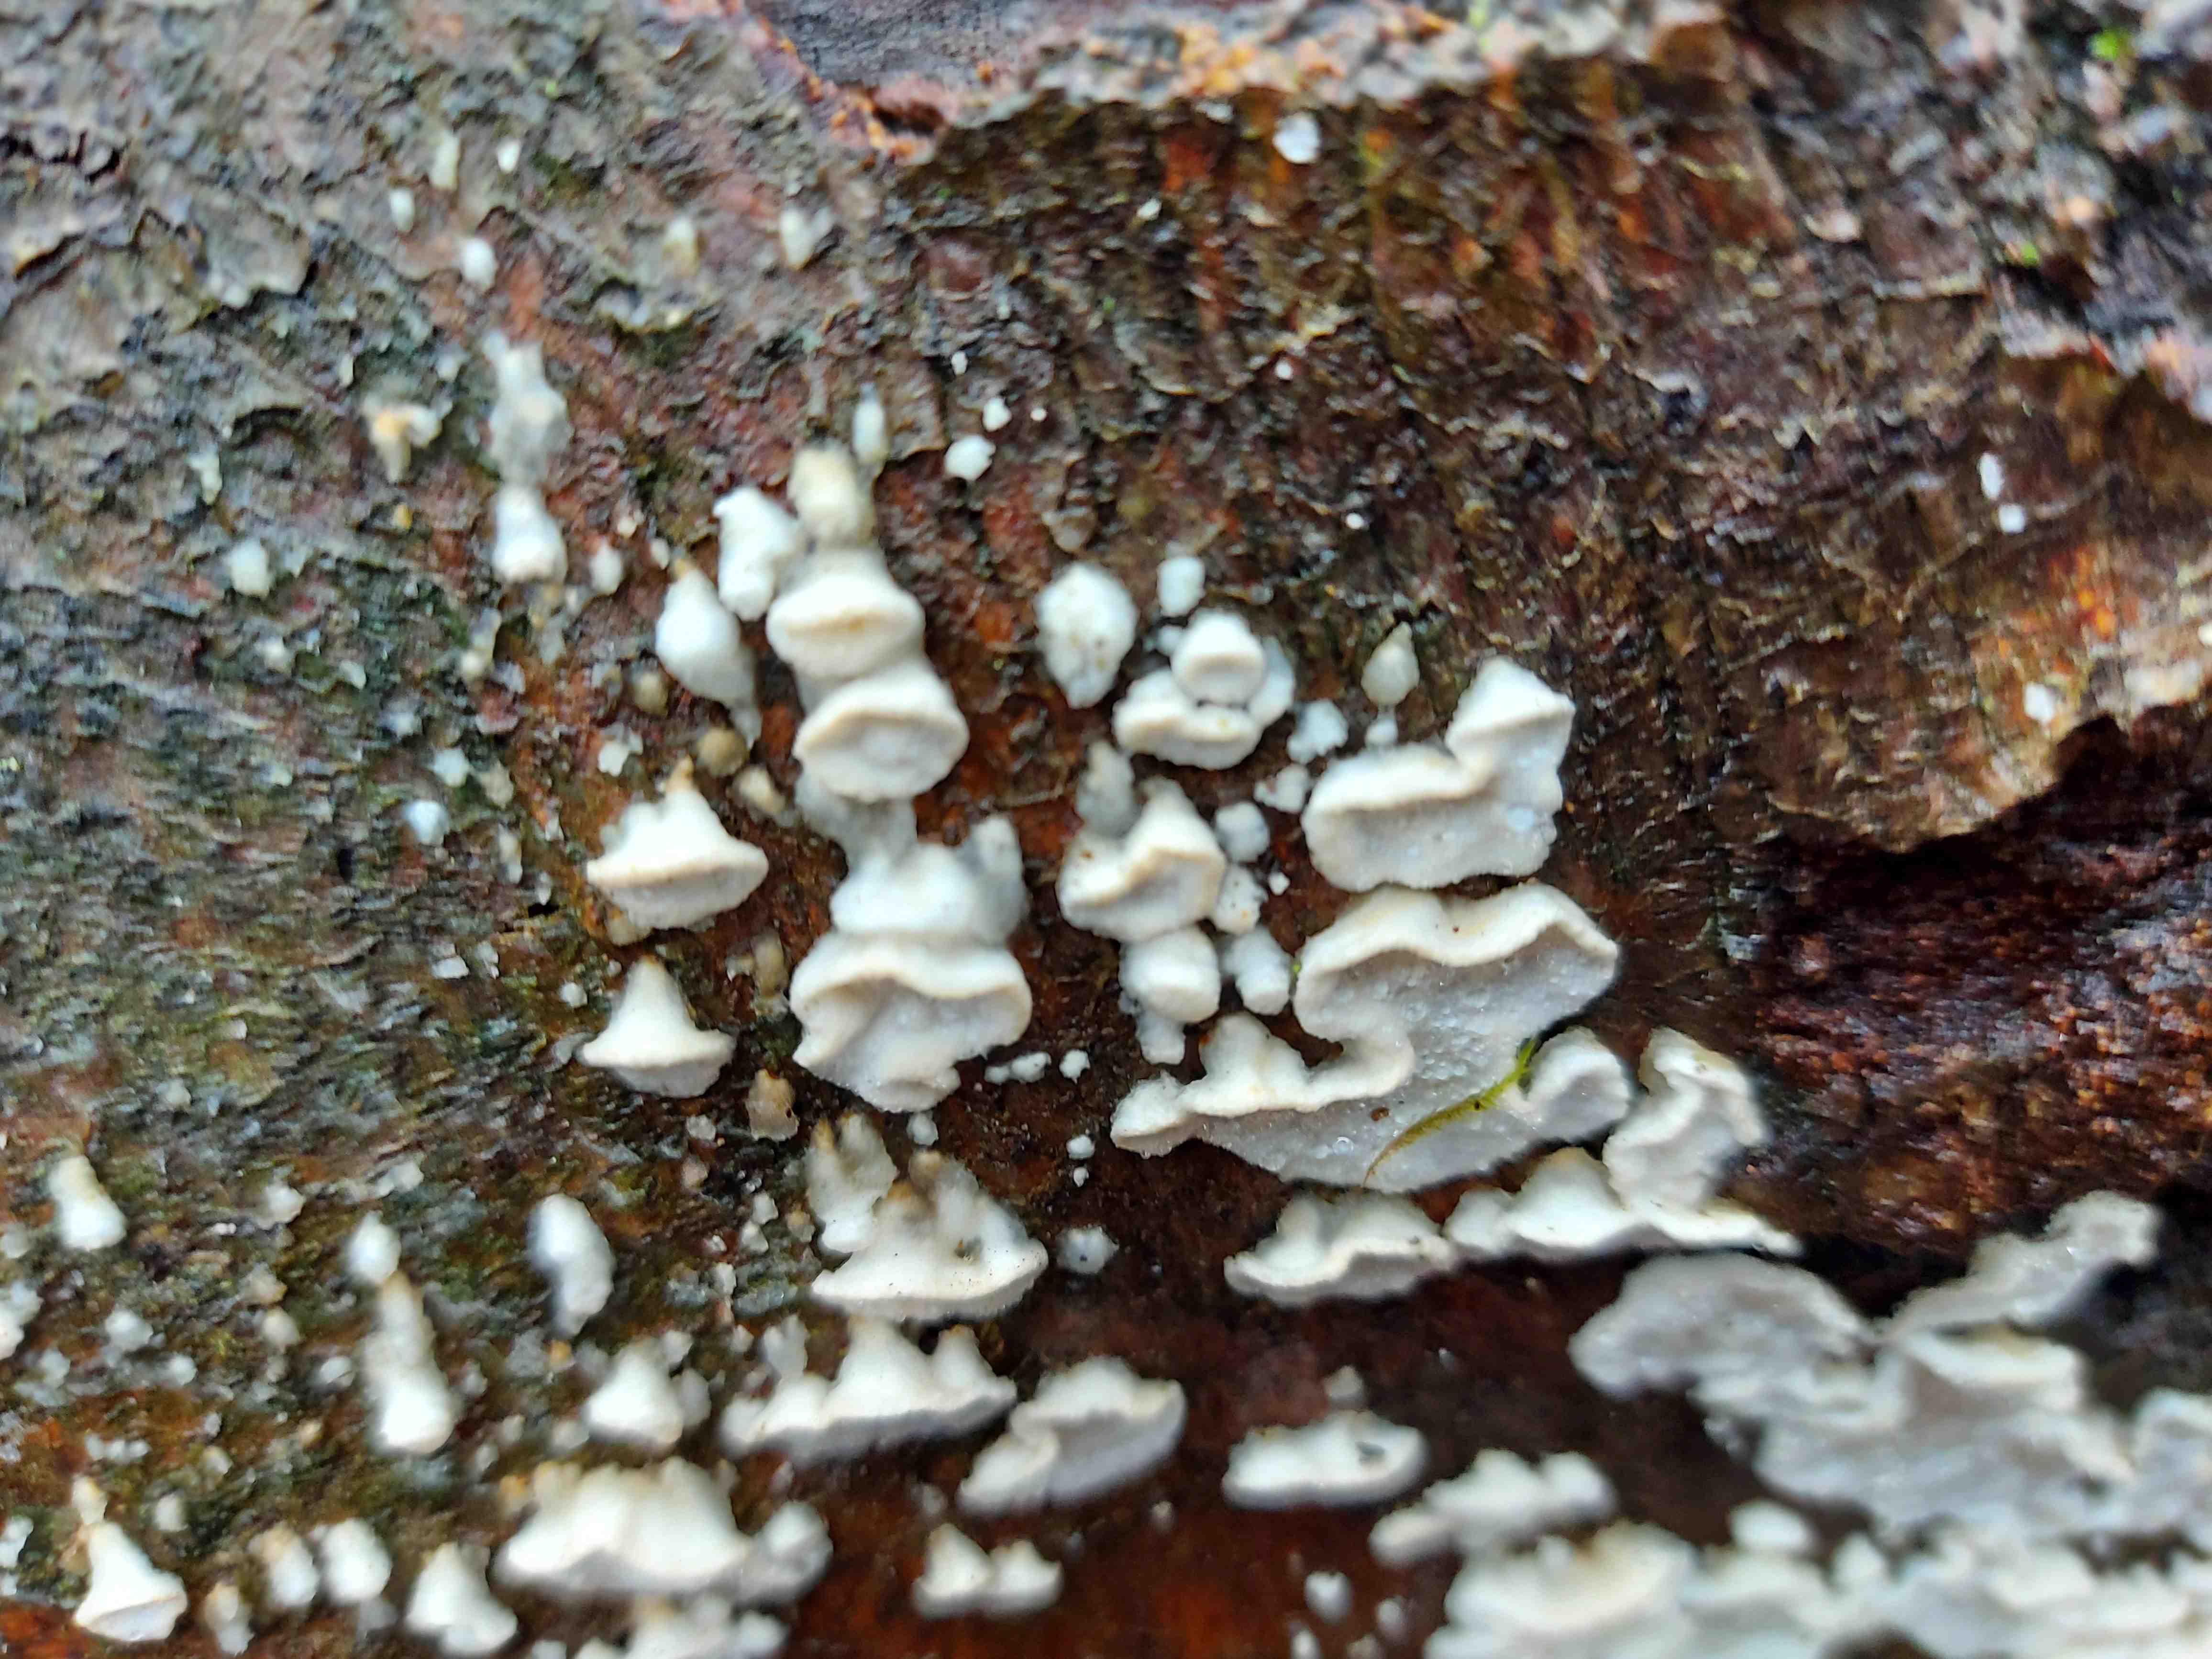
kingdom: Fungi
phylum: Basidiomycota
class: Agaricomycetes
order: Polyporales
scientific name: Polyporales
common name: poresvampordenen
